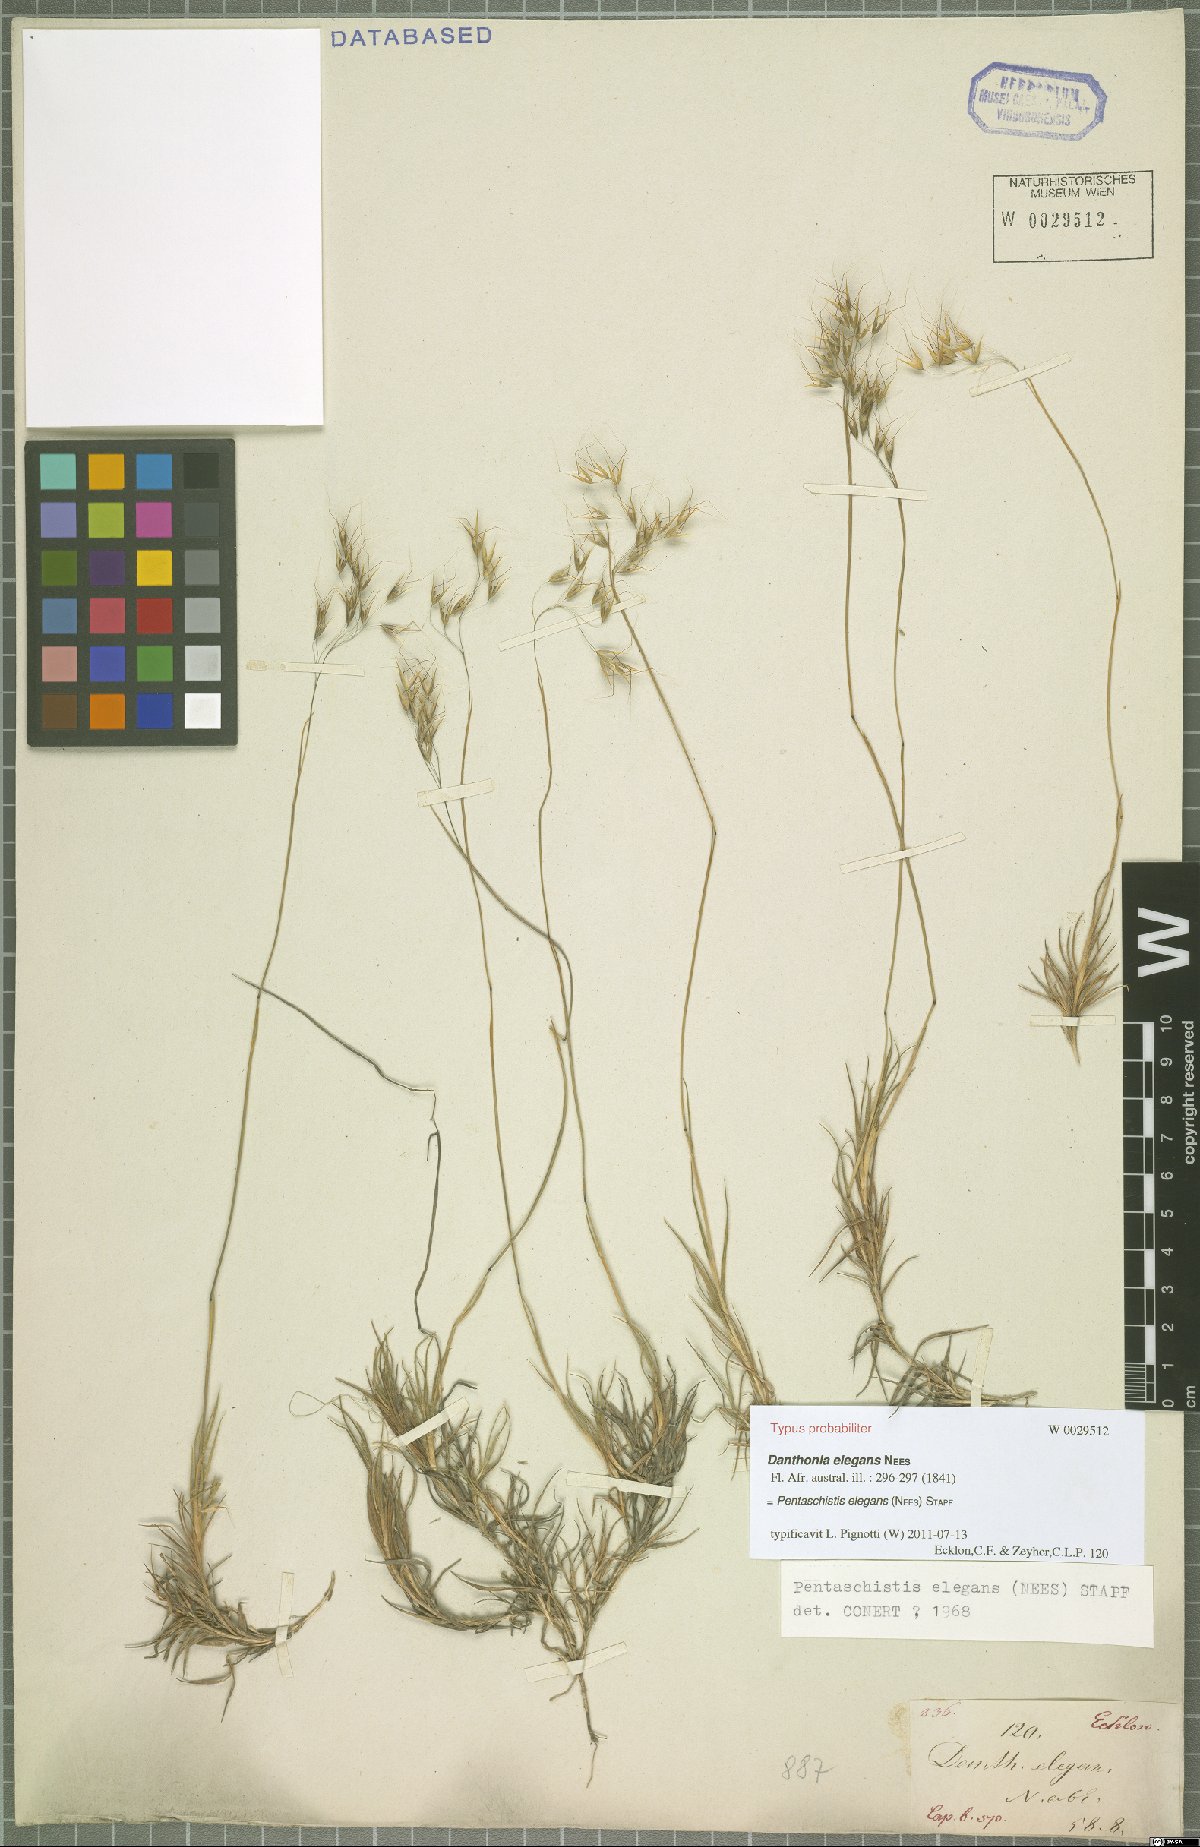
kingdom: Plantae
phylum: Tracheophyta
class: Liliopsida
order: Poales
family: Poaceae
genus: Pentameris
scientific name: Pentameris elegans
